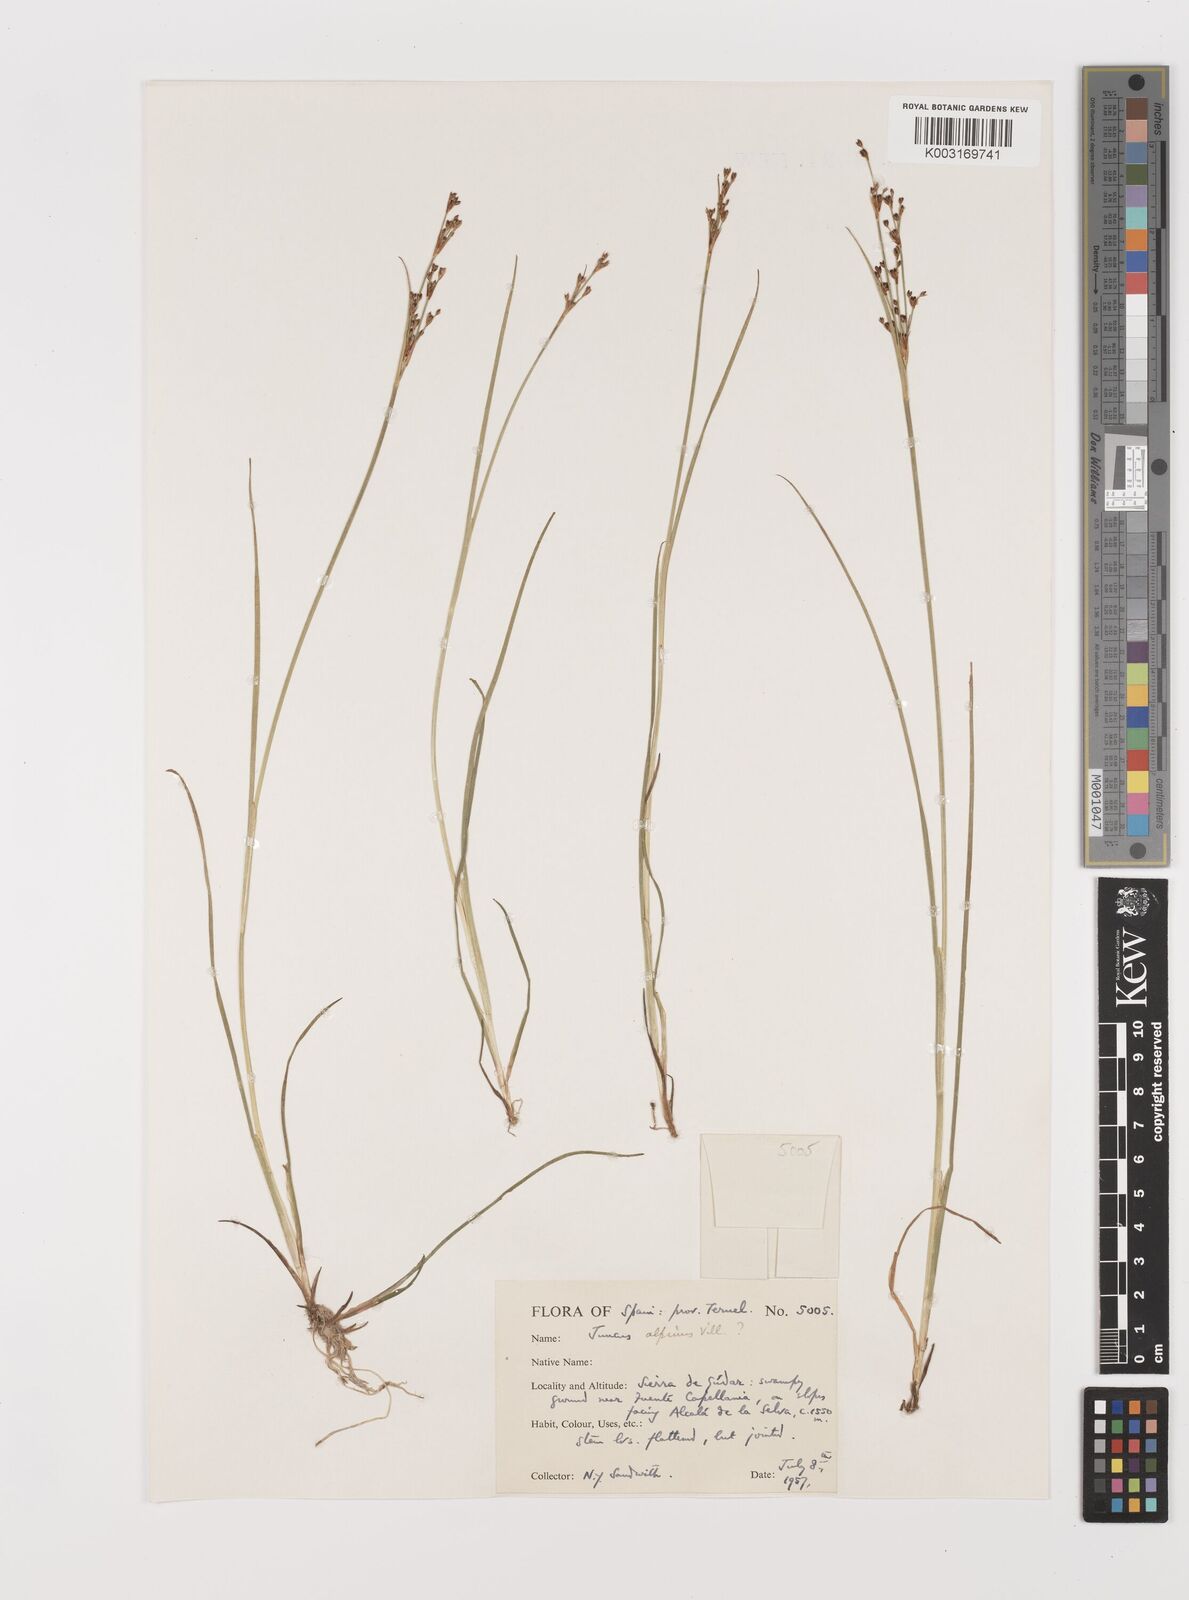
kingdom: Plantae
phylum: Tracheophyta
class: Liliopsida
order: Poales
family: Juncaceae
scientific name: Juncaceae
